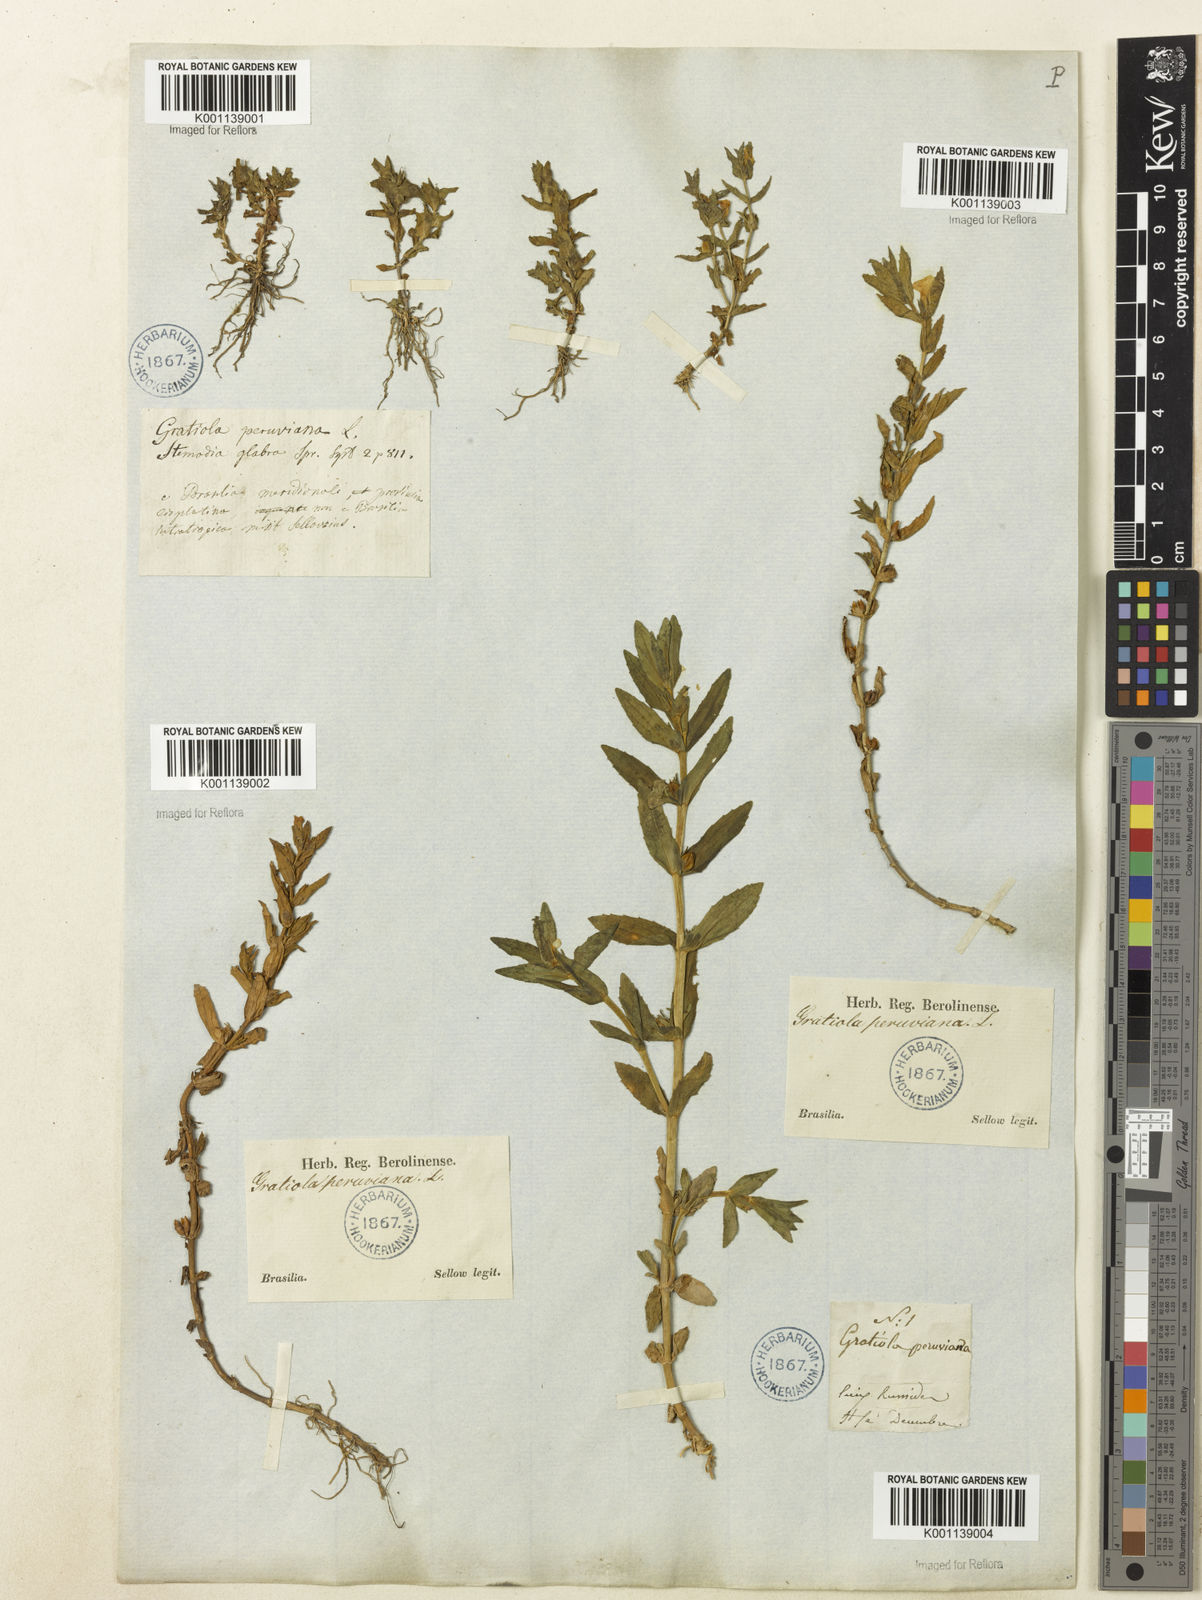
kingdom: Plantae
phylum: Tracheophyta
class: Magnoliopsida
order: Lamiales
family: Plantaginaceae
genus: Gratiola
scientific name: Gratiola peruviana
